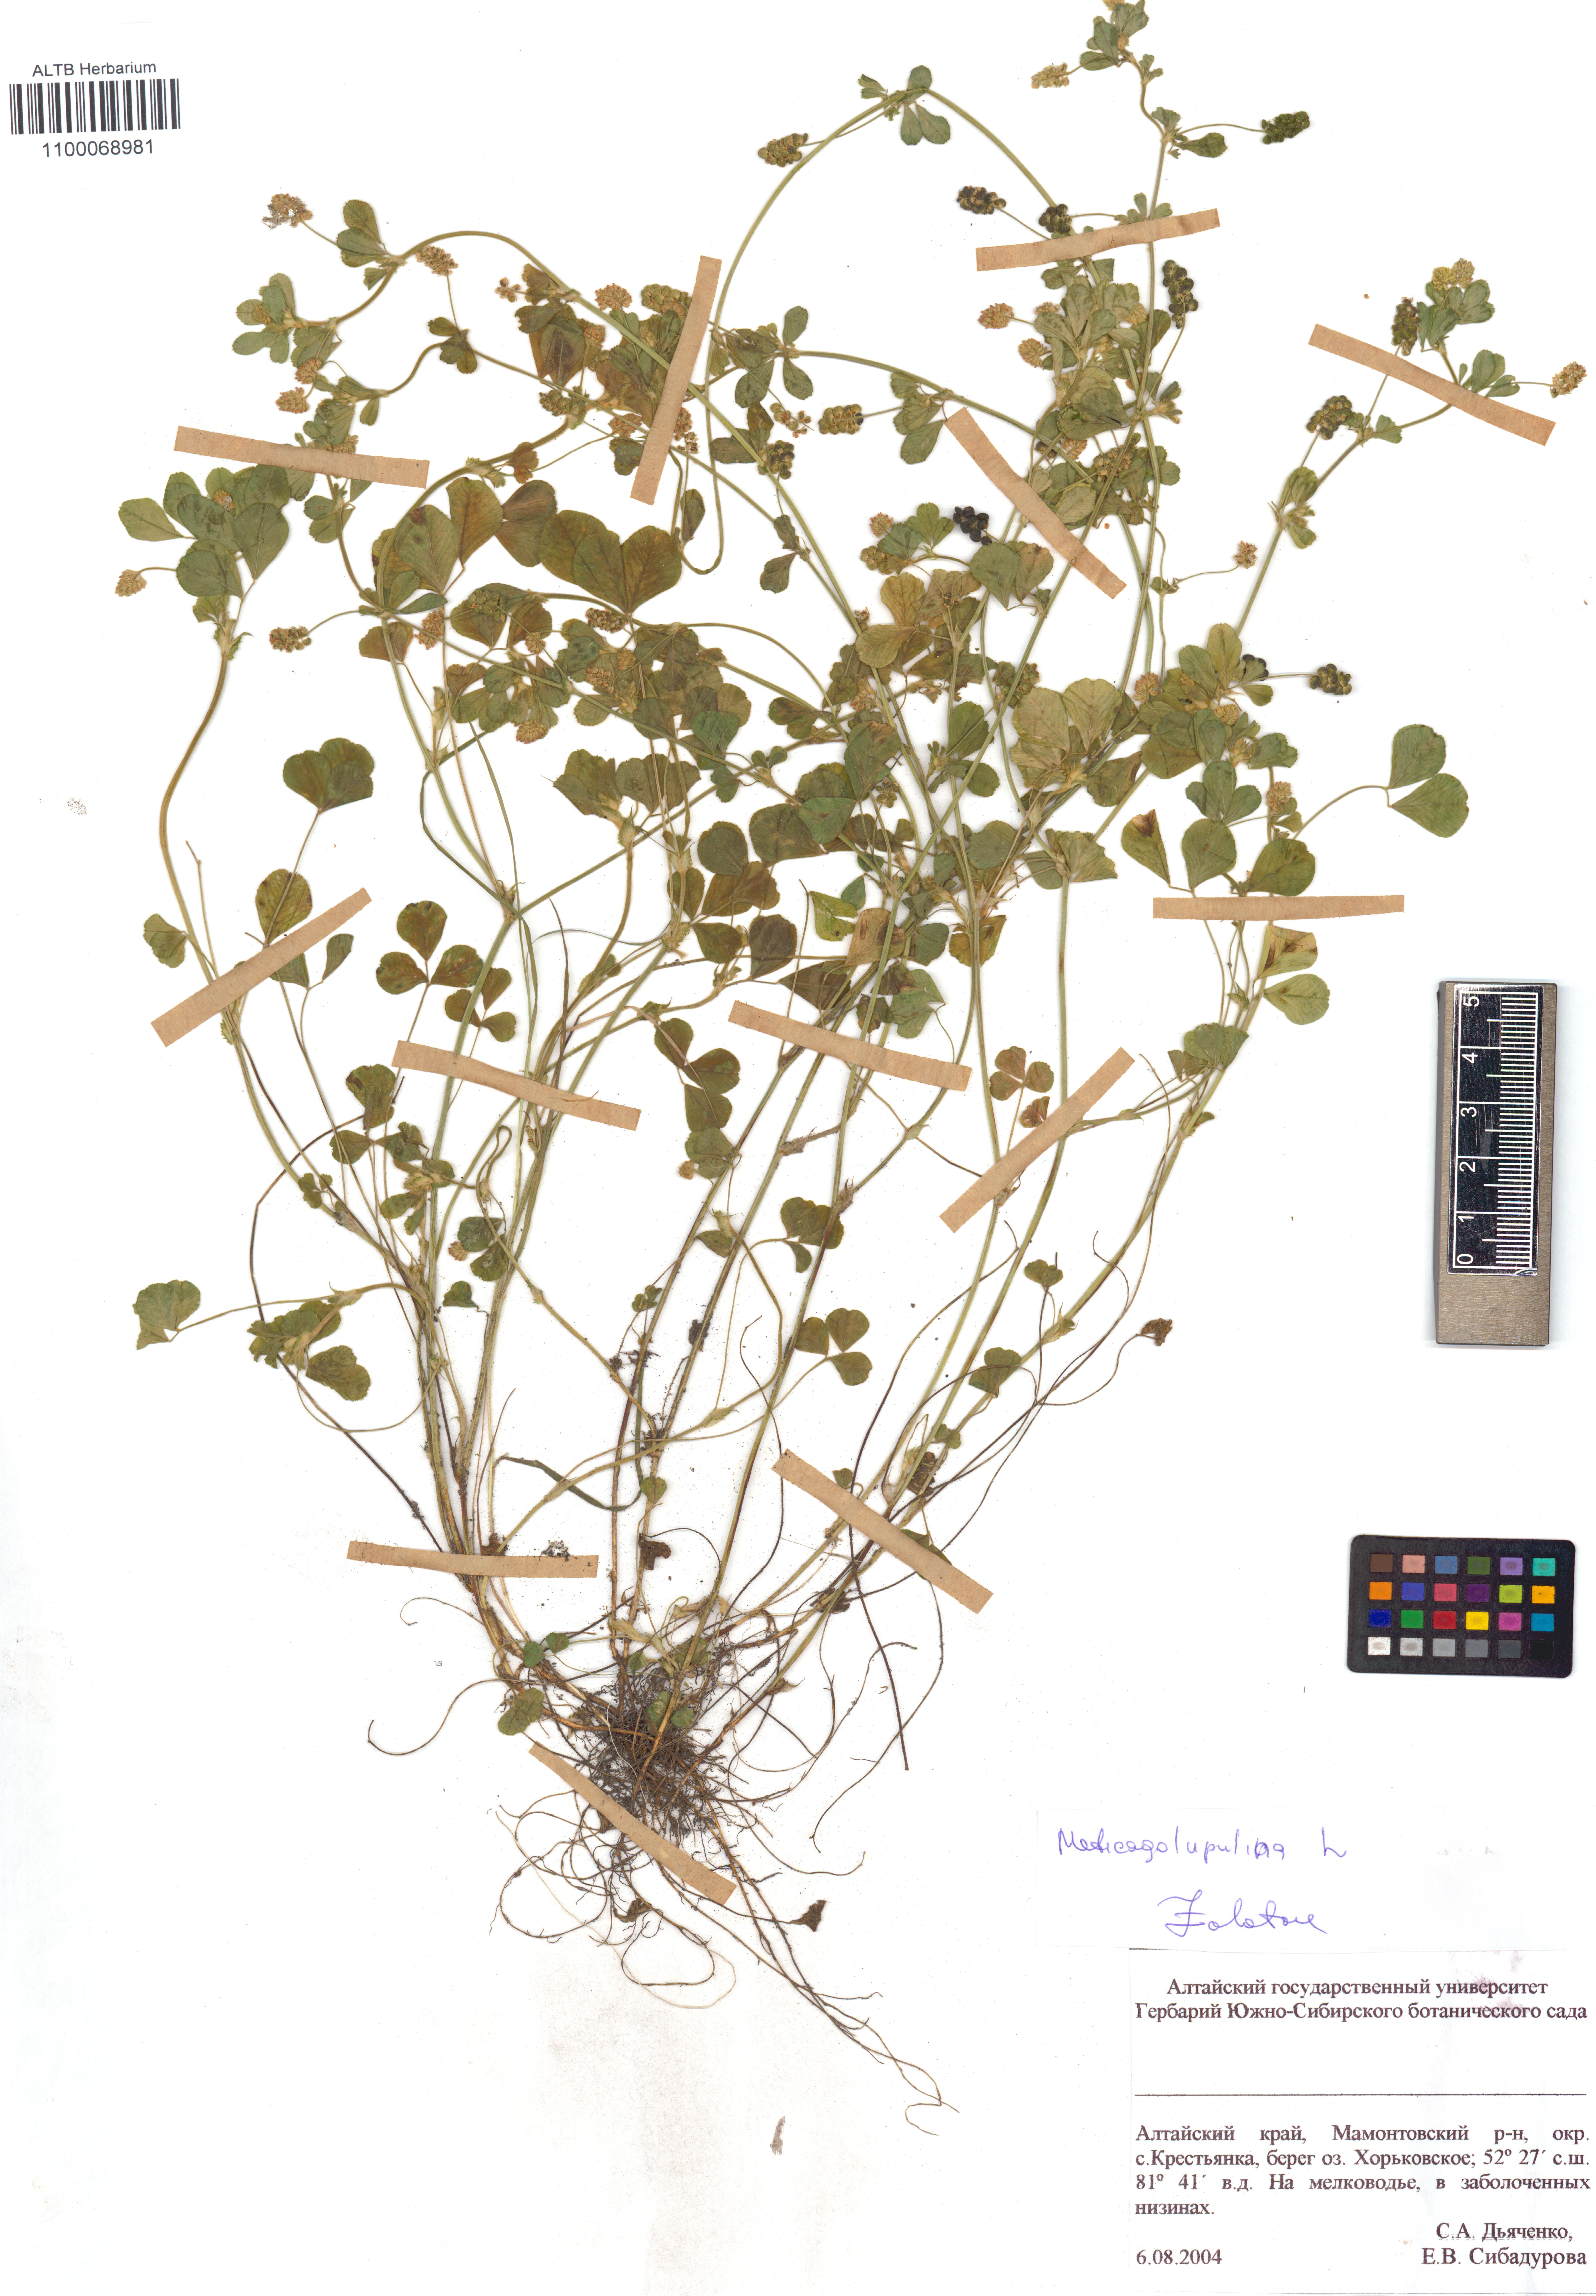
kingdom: Plantae
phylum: Tracheophyta
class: Magnoliopsida
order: Fabales
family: Fabaceae
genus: Medicago
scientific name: Medicago lupulina
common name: Black medick
